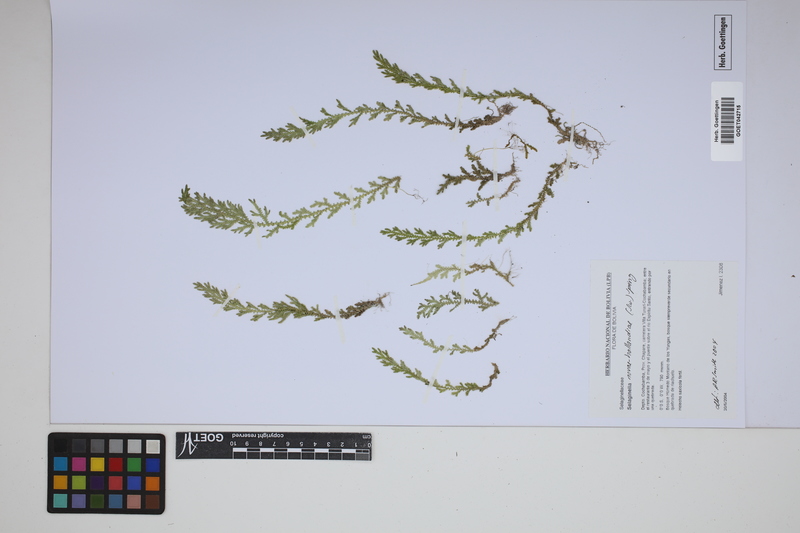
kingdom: Plantae
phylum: Tracheophyta
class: Lycopodiopsida
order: Selaginellales
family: Selaginellaceae
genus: Selaginella
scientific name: Selaginella novae-hollandiae
